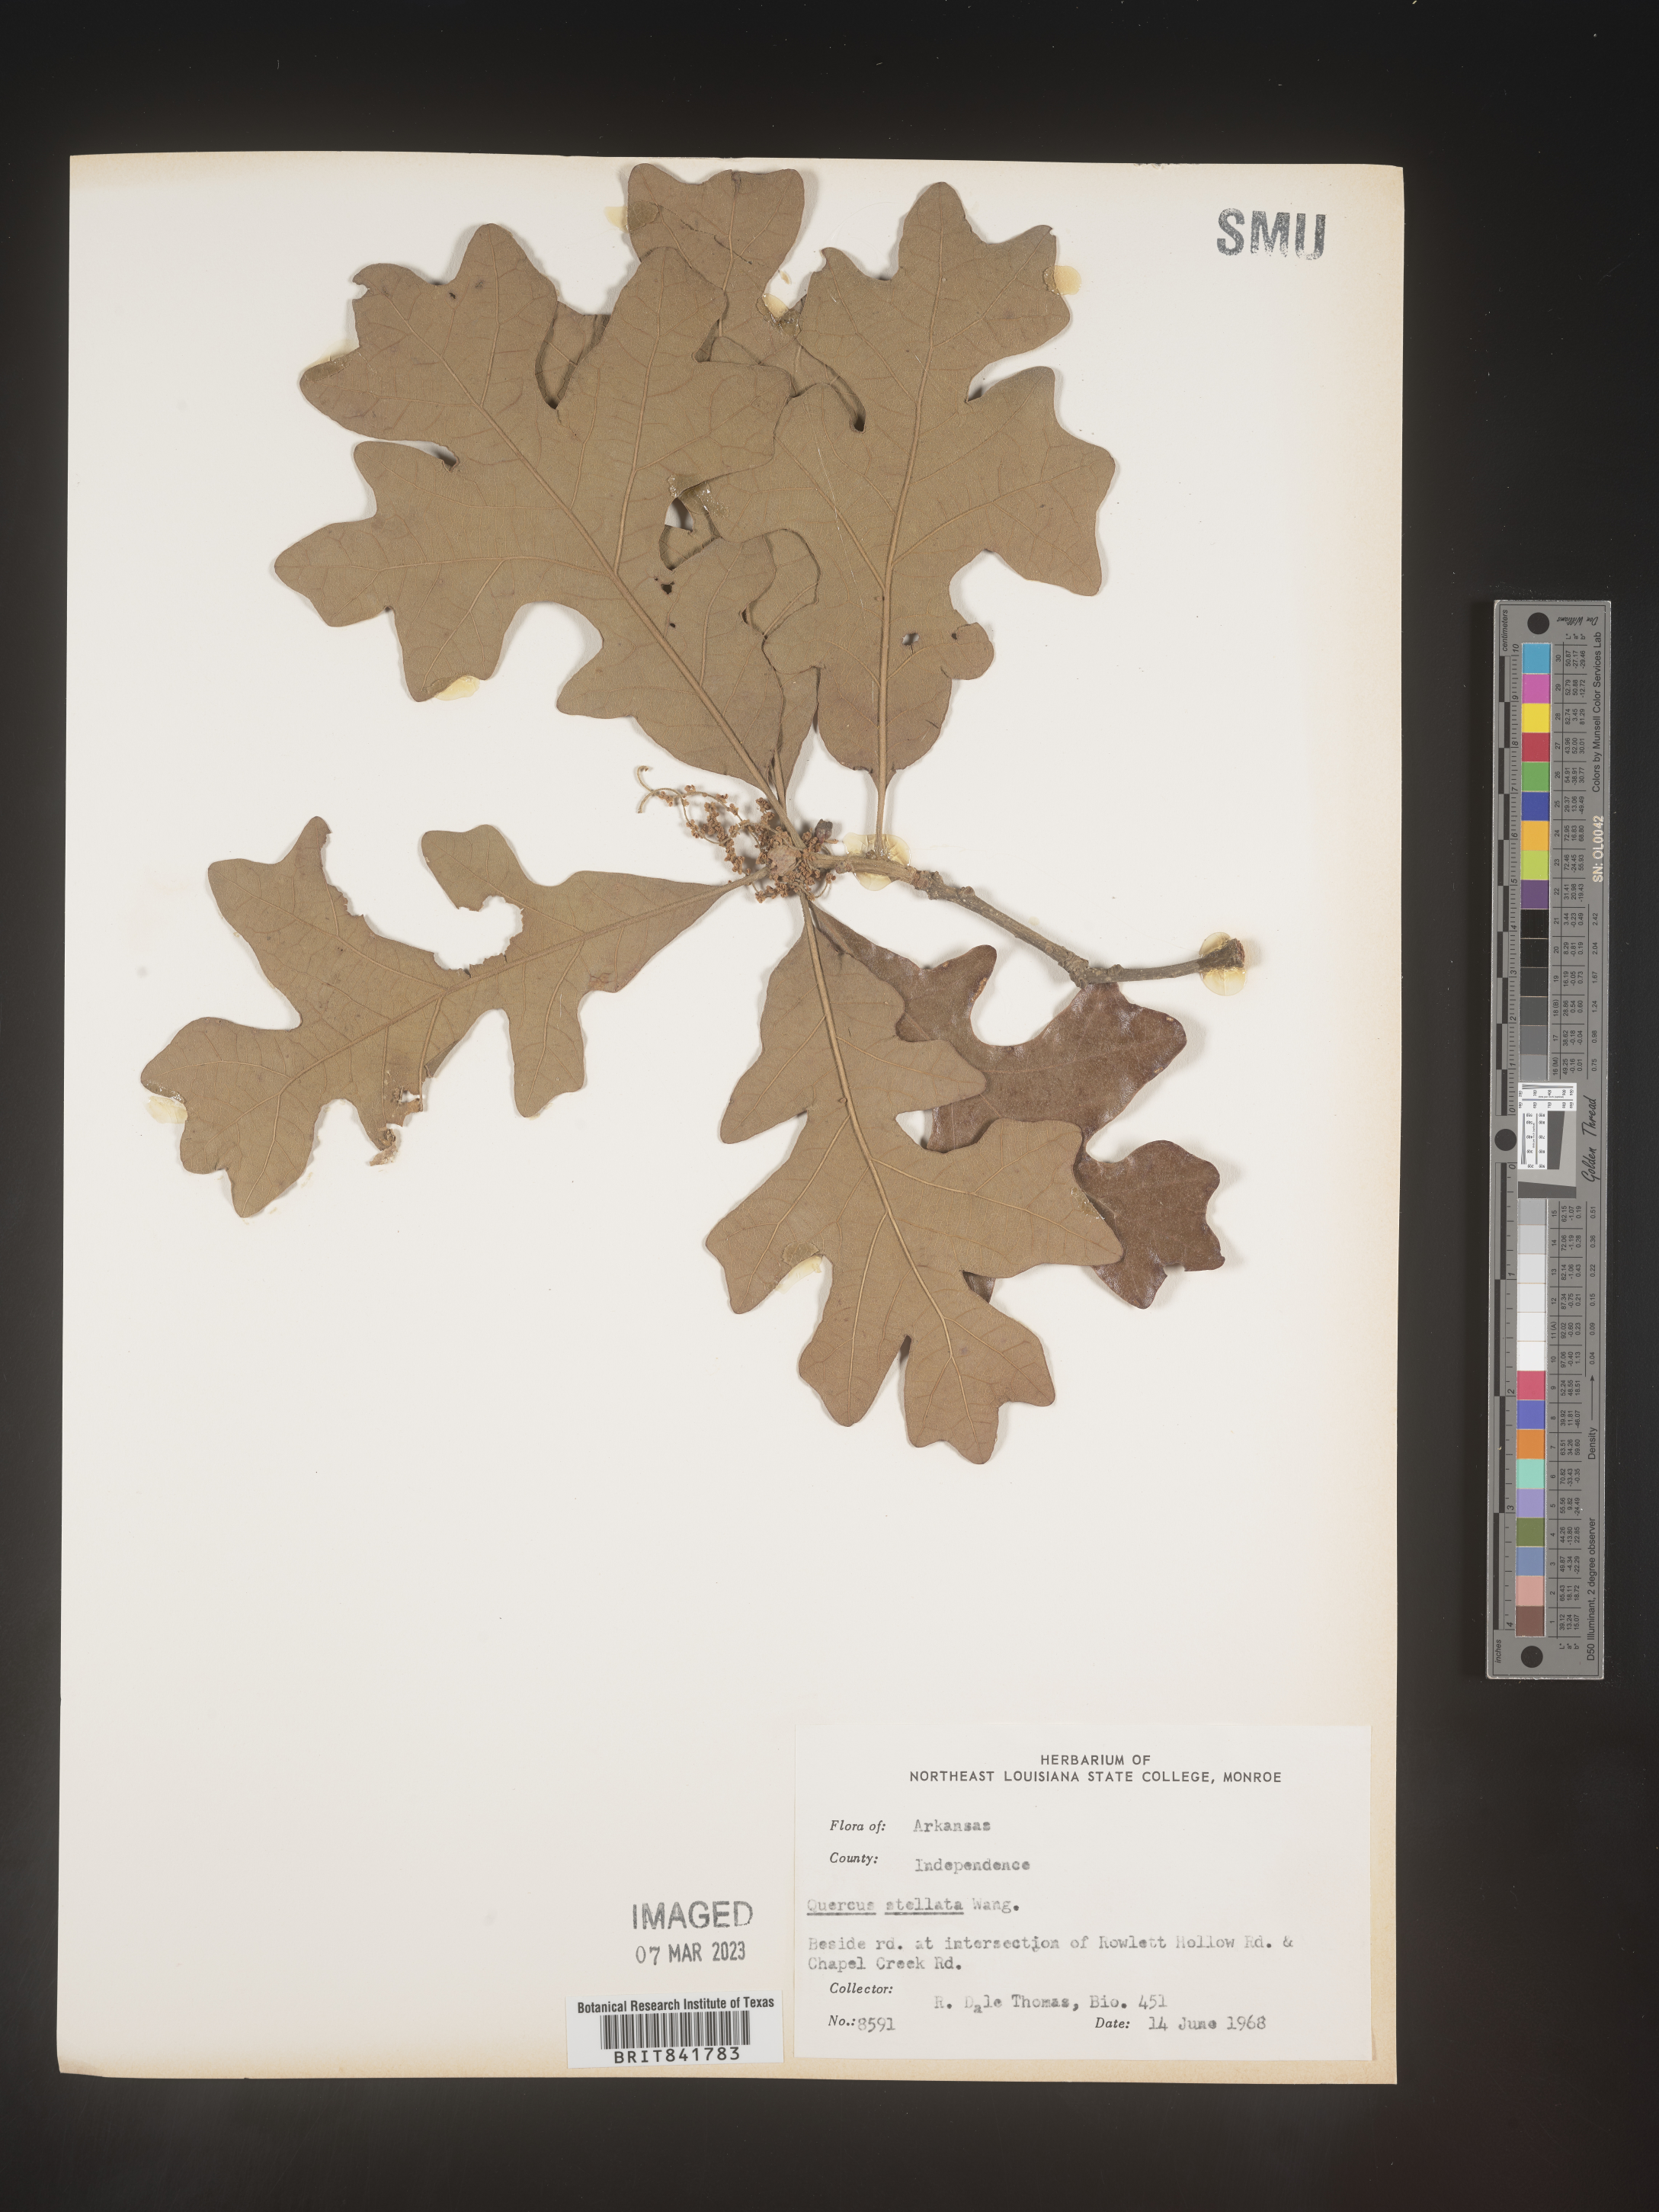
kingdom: Plantae
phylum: Tracheophyta
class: Magnoliopsida
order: Fagales
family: Fagaceae
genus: Quercus
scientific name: Quercus stellata
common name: Post oak
